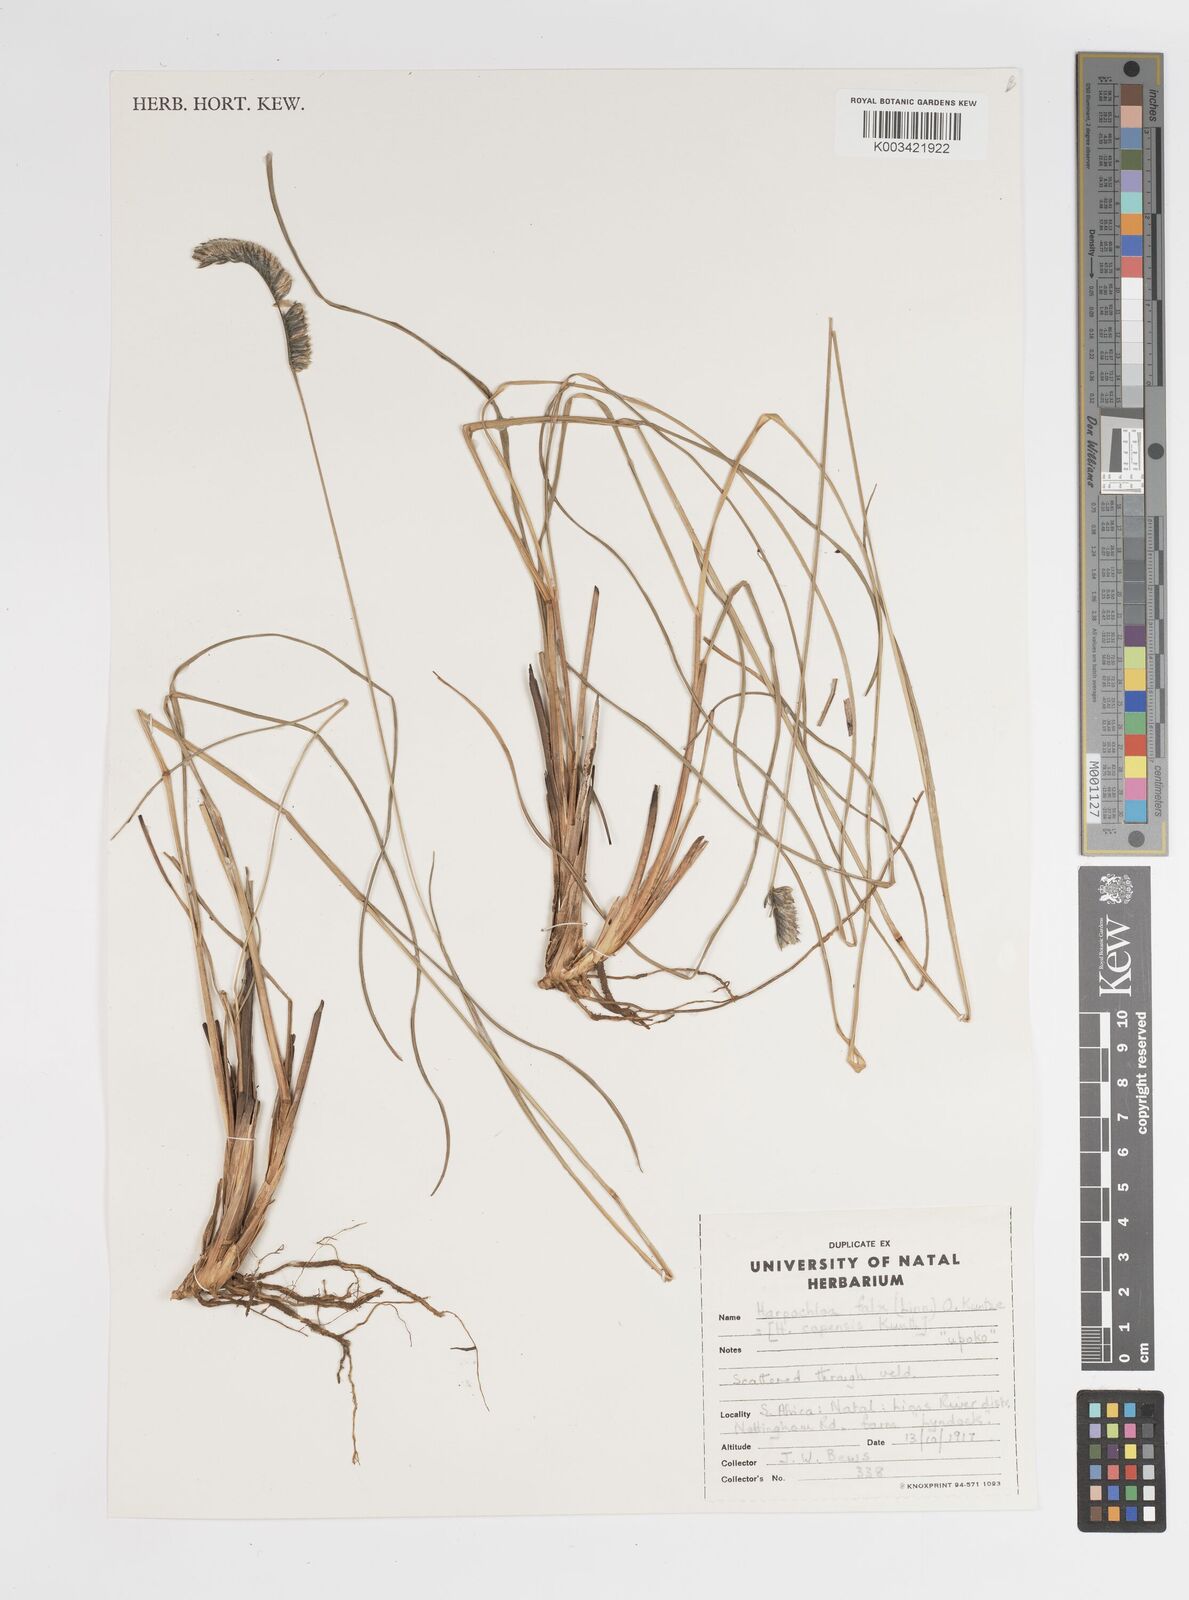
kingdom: Plantae
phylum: Tracheophyta
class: Liliopsida
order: Poales
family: Poaceae
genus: Harpochloa
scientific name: Harpochloa falx
